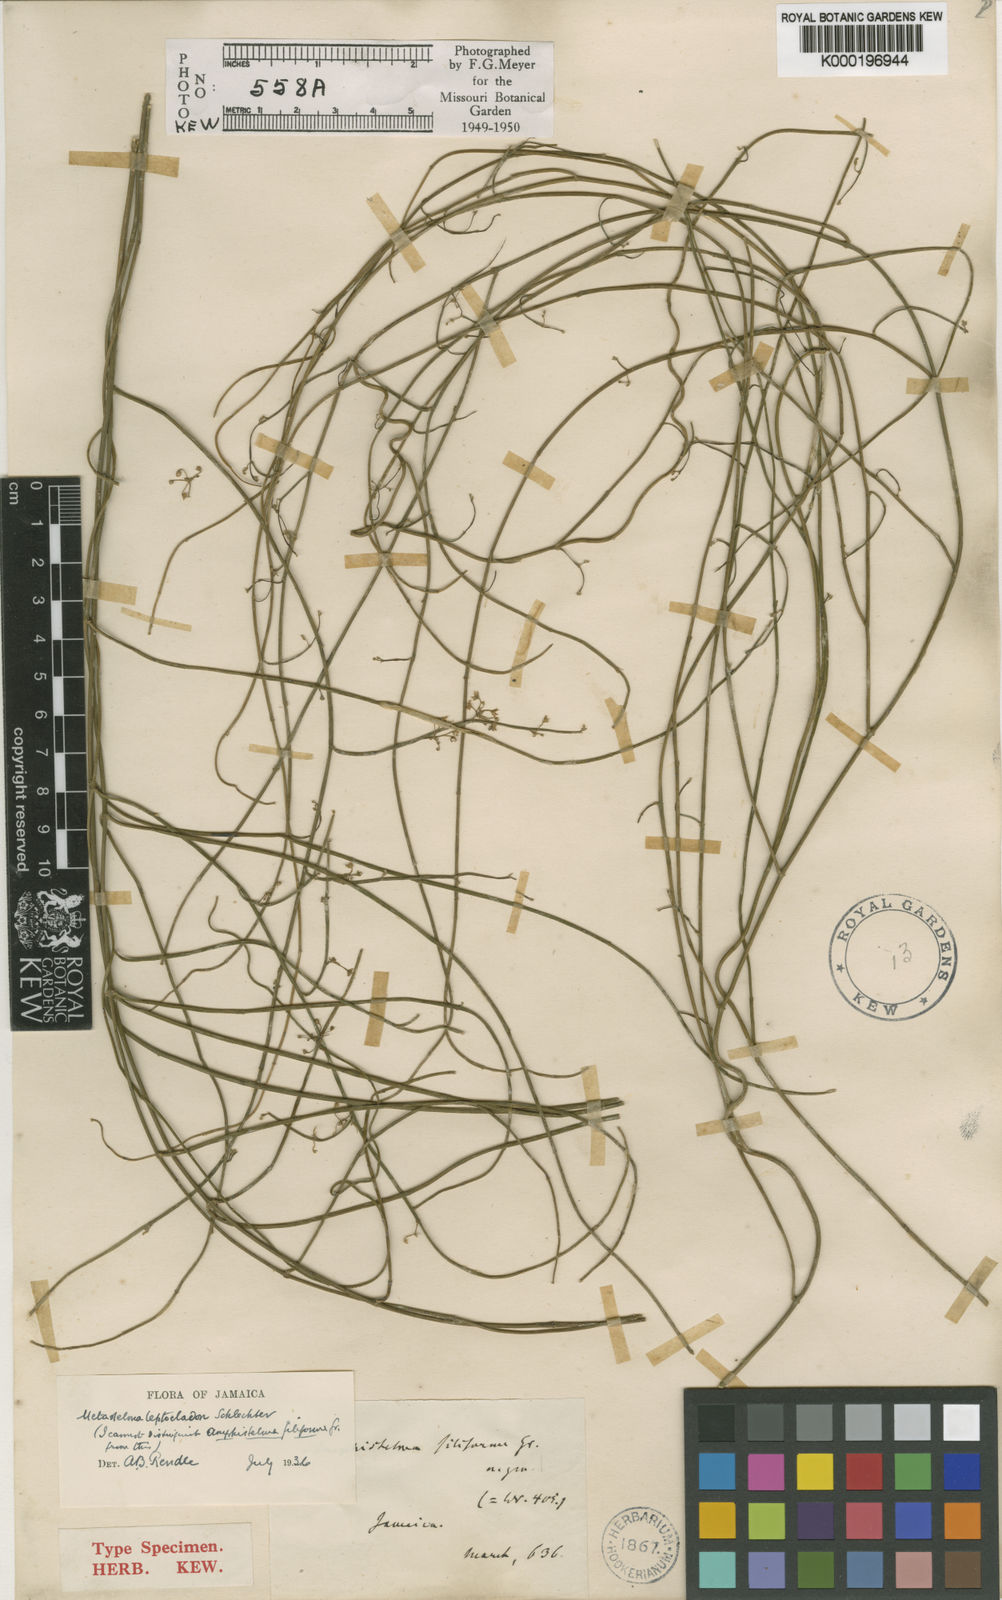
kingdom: Plantae
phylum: Tracheophyta
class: Magnoliopsida
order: Gentianales
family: Apocynaceae
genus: Orthosia
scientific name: Orthosia scoparia
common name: Leafless swallow-wort
